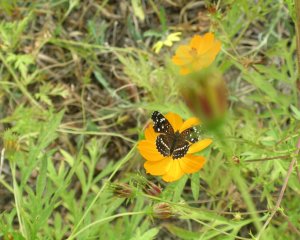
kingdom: Animalia
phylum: Arthropoda
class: Insecta
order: Lepidoptera
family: Nymphalidae
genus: Anthanassa
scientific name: Anthanassa texana
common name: Texan Crescent
